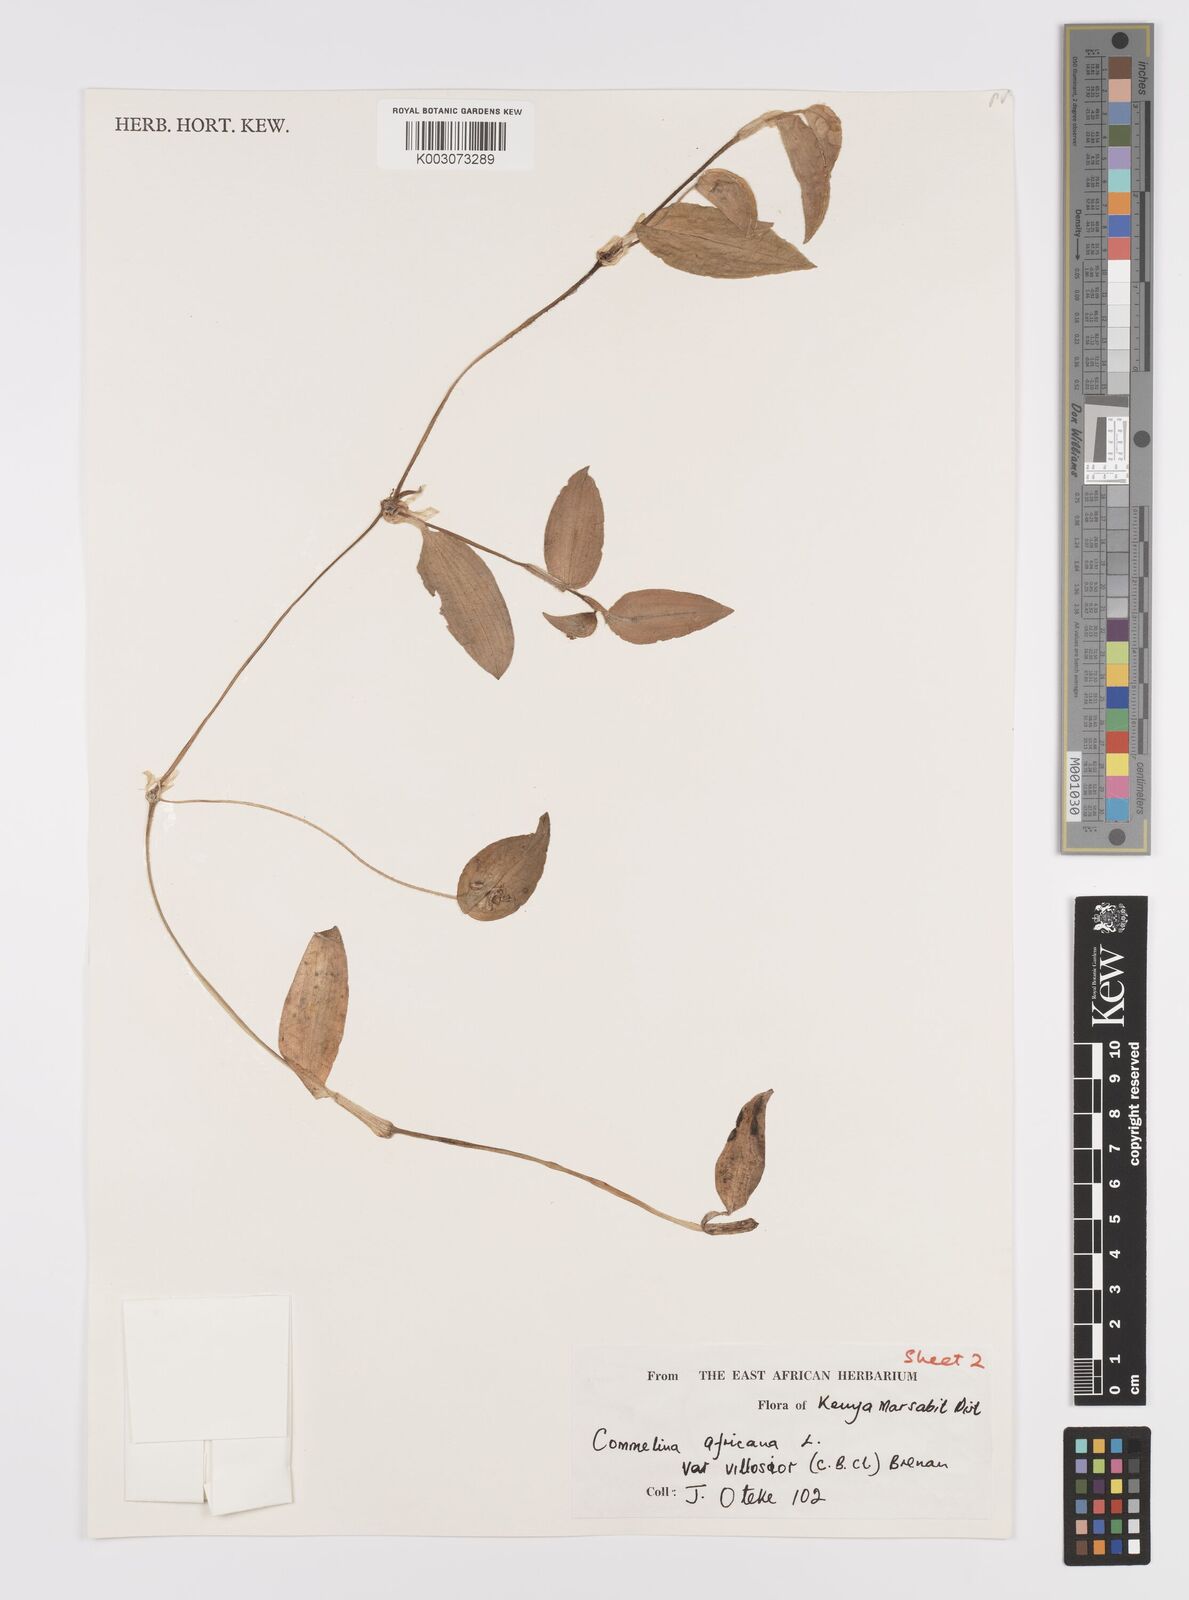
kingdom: Plantae
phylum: Tracheophyta
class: Liliopsida
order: Commelinales
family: Commelinaceae
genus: Commelina
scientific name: Commelina africana
